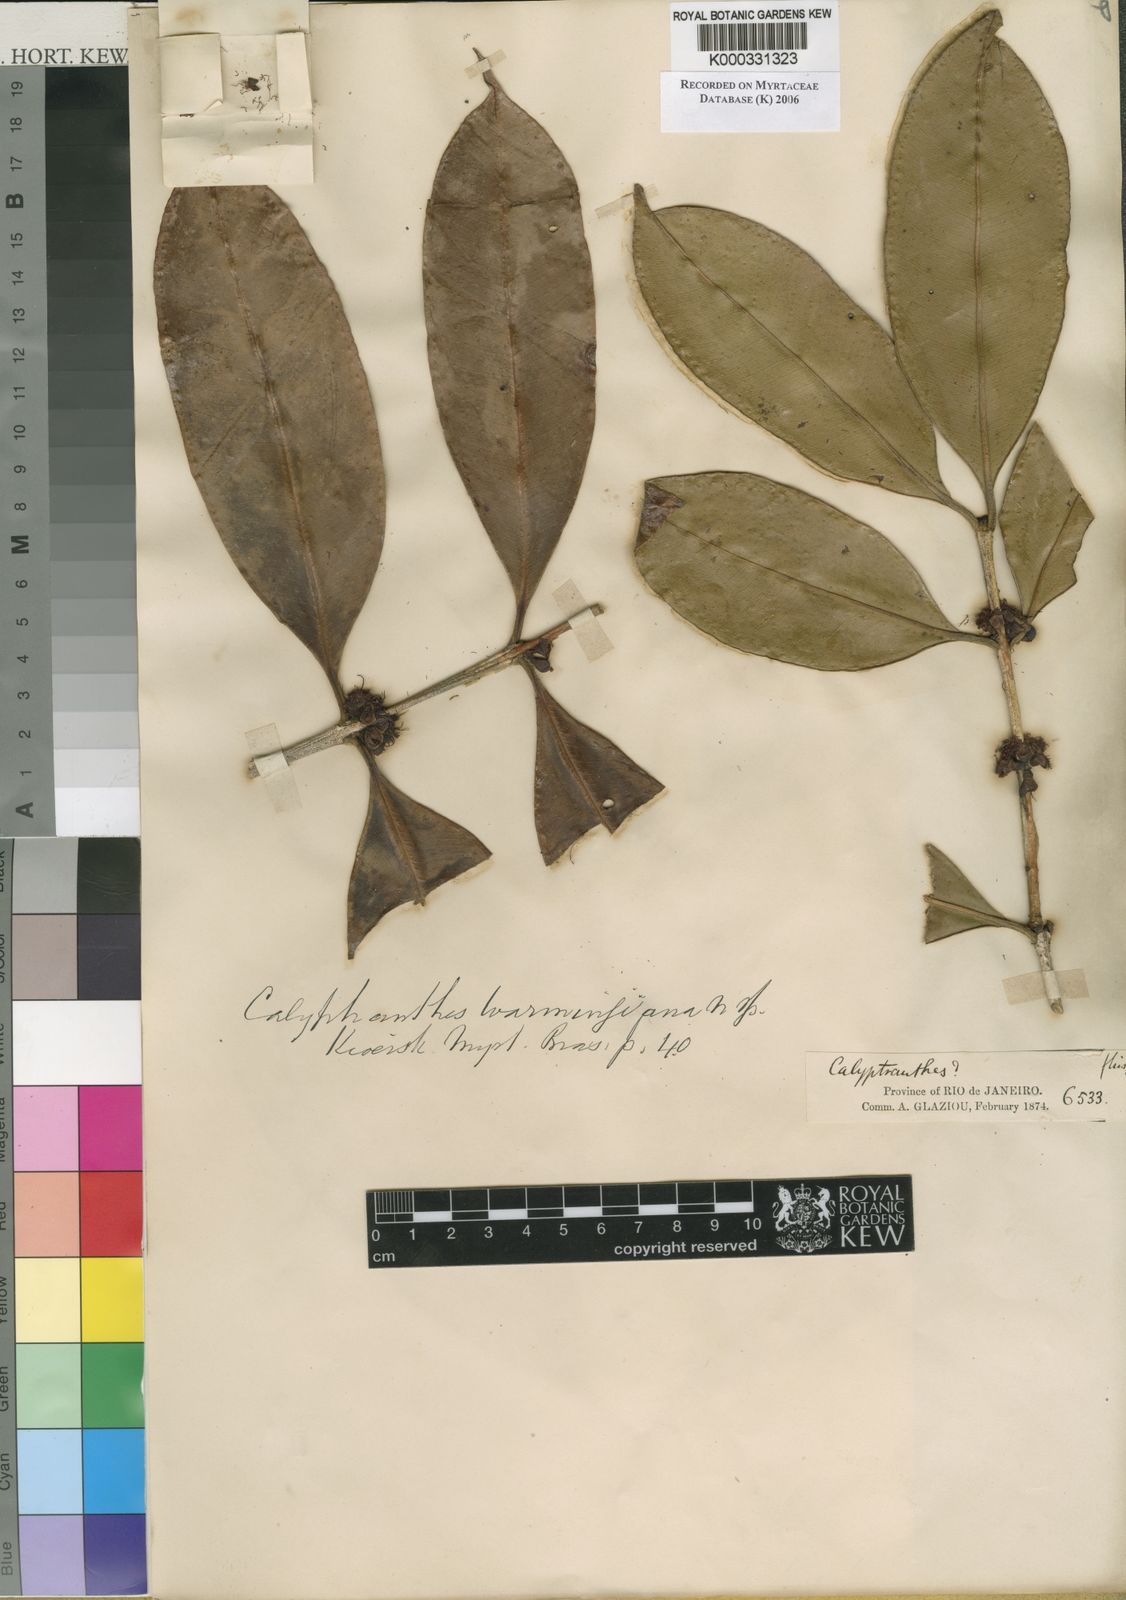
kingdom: Plantae
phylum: Tracheophyta
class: Magnoliopsida
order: Myrtales
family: Myrtaceae
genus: Neomitranthes
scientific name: Neomitranthes warmingiana
